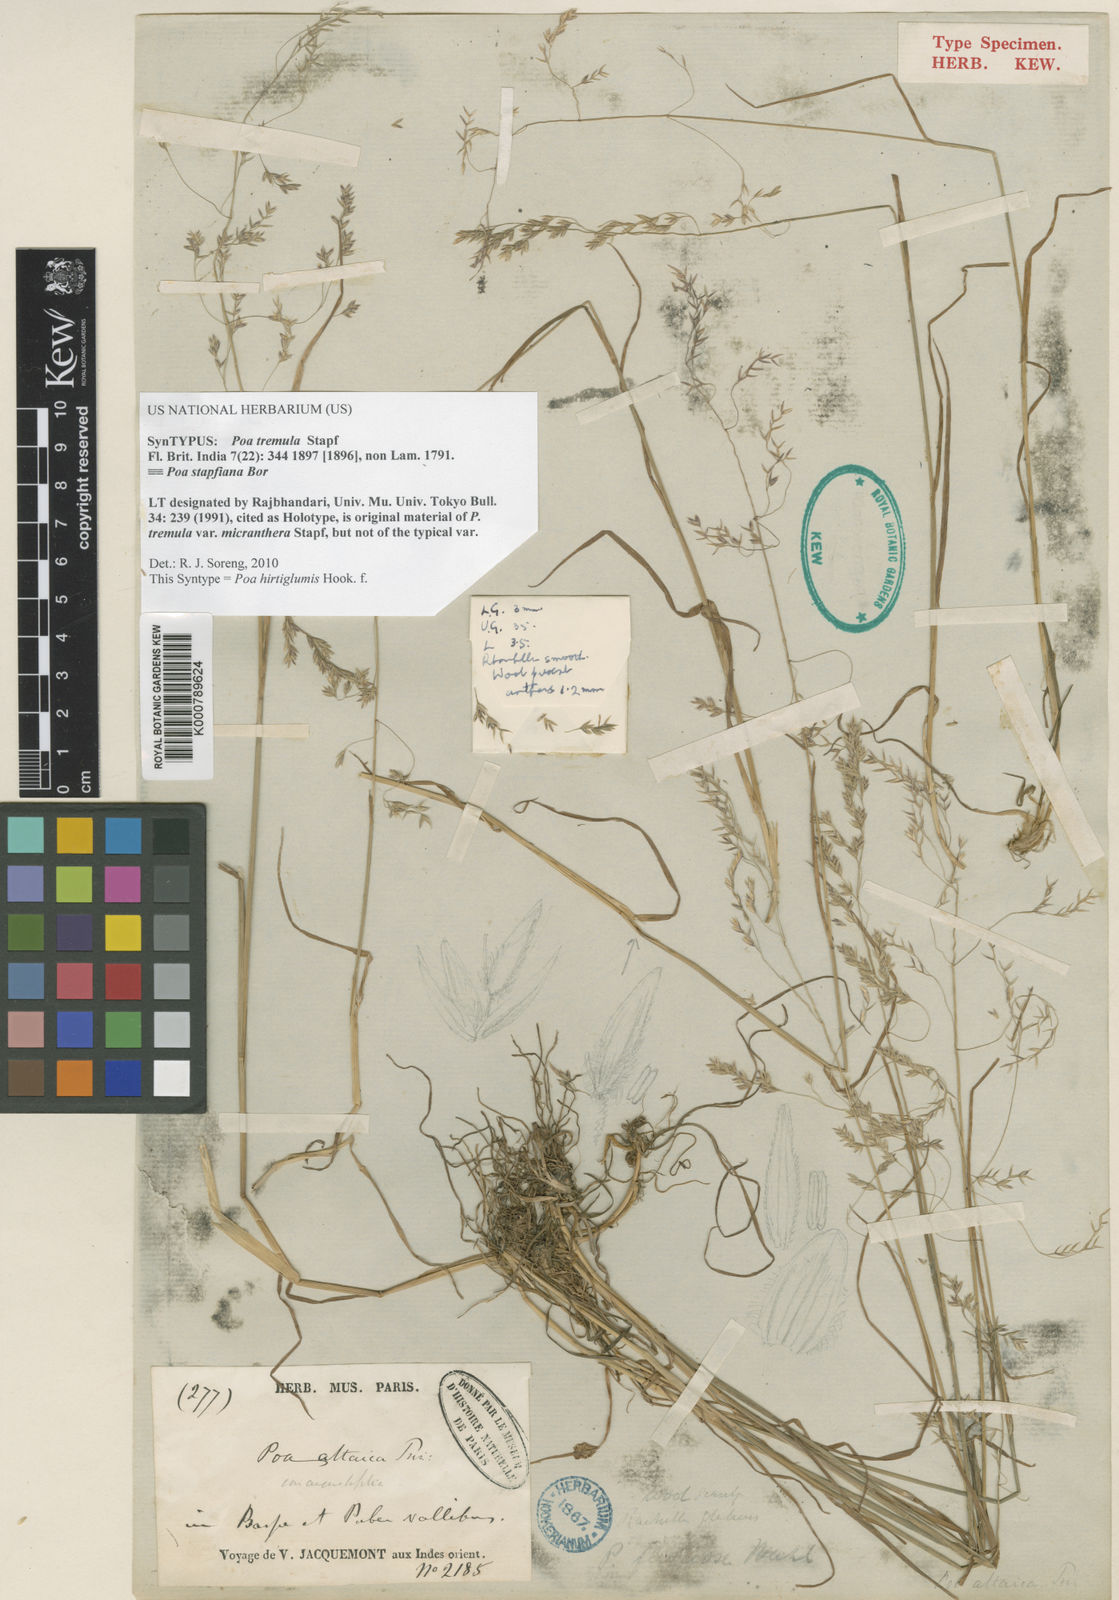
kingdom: Plantae
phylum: Tracheophyta
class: Liliopsida
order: Poales
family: Poaceae
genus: Poa
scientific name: Poa hirtiglumis
